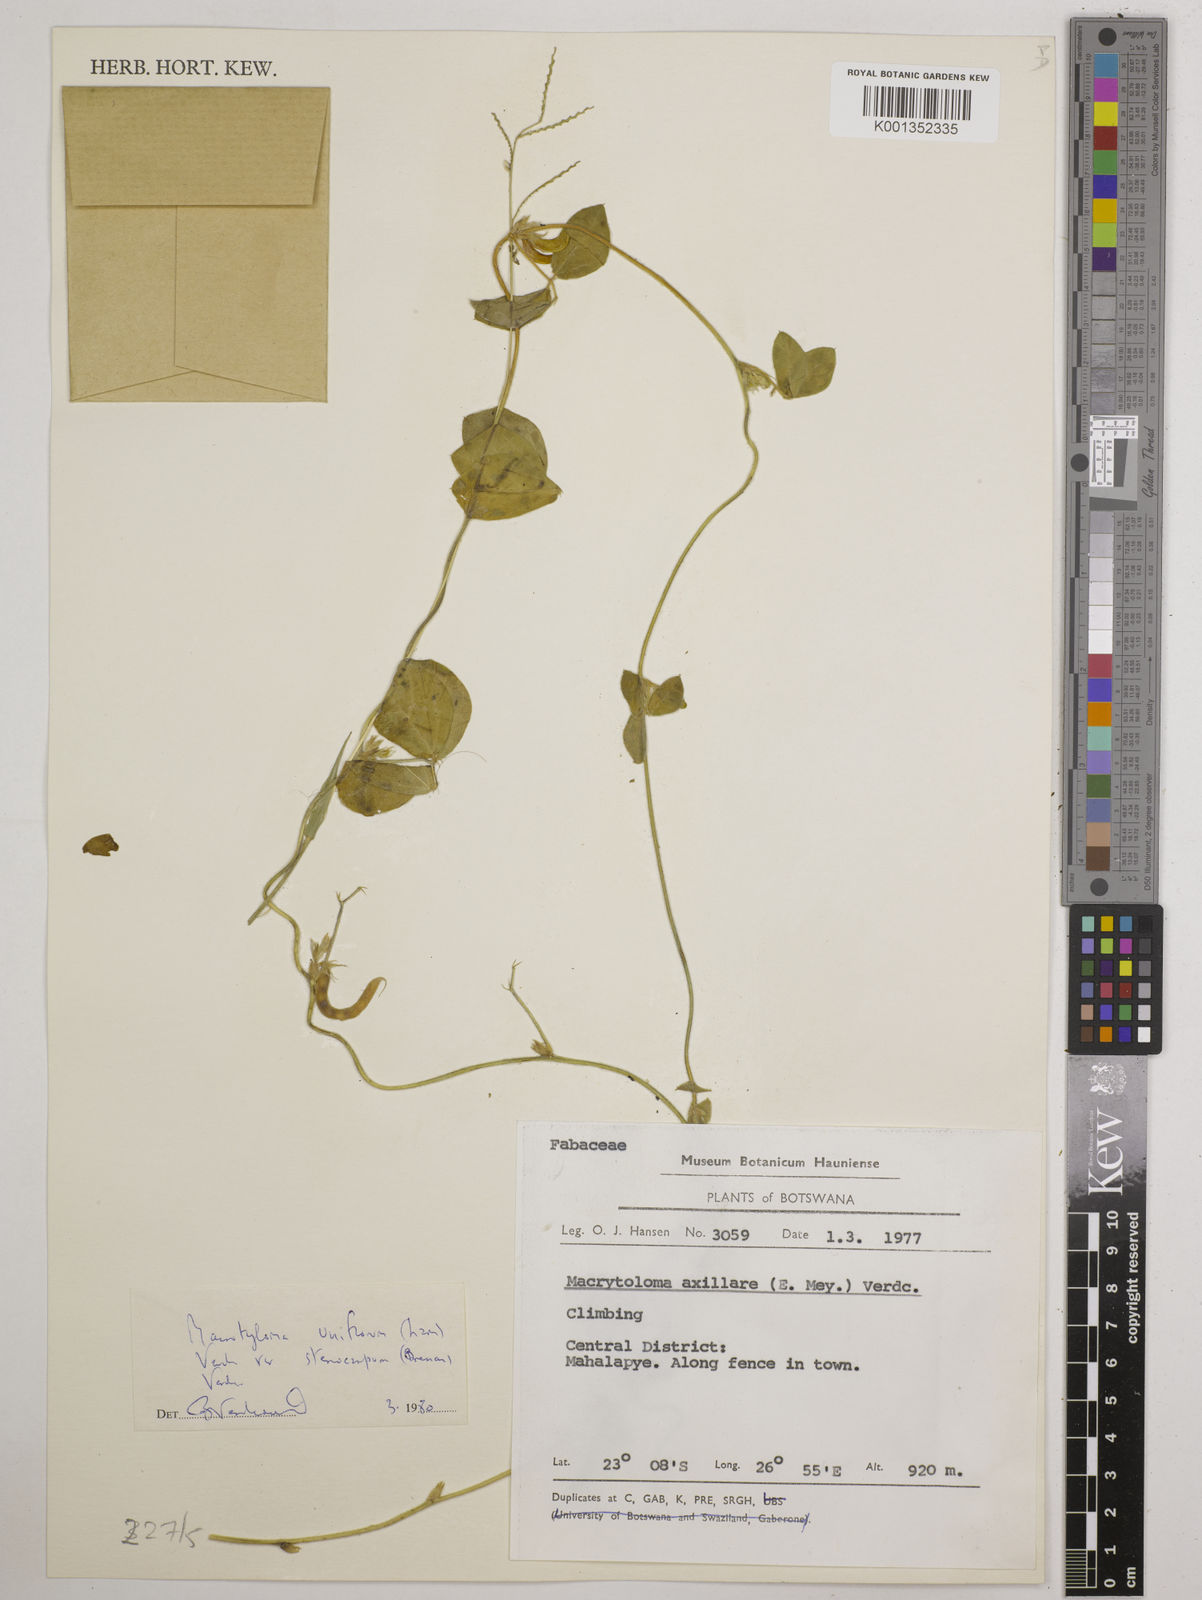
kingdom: Plantae
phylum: Tracheophyta
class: Magnoliopsida
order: Fabales
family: Fabaceae
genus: Macrotyloma
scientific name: Macrotyloma
